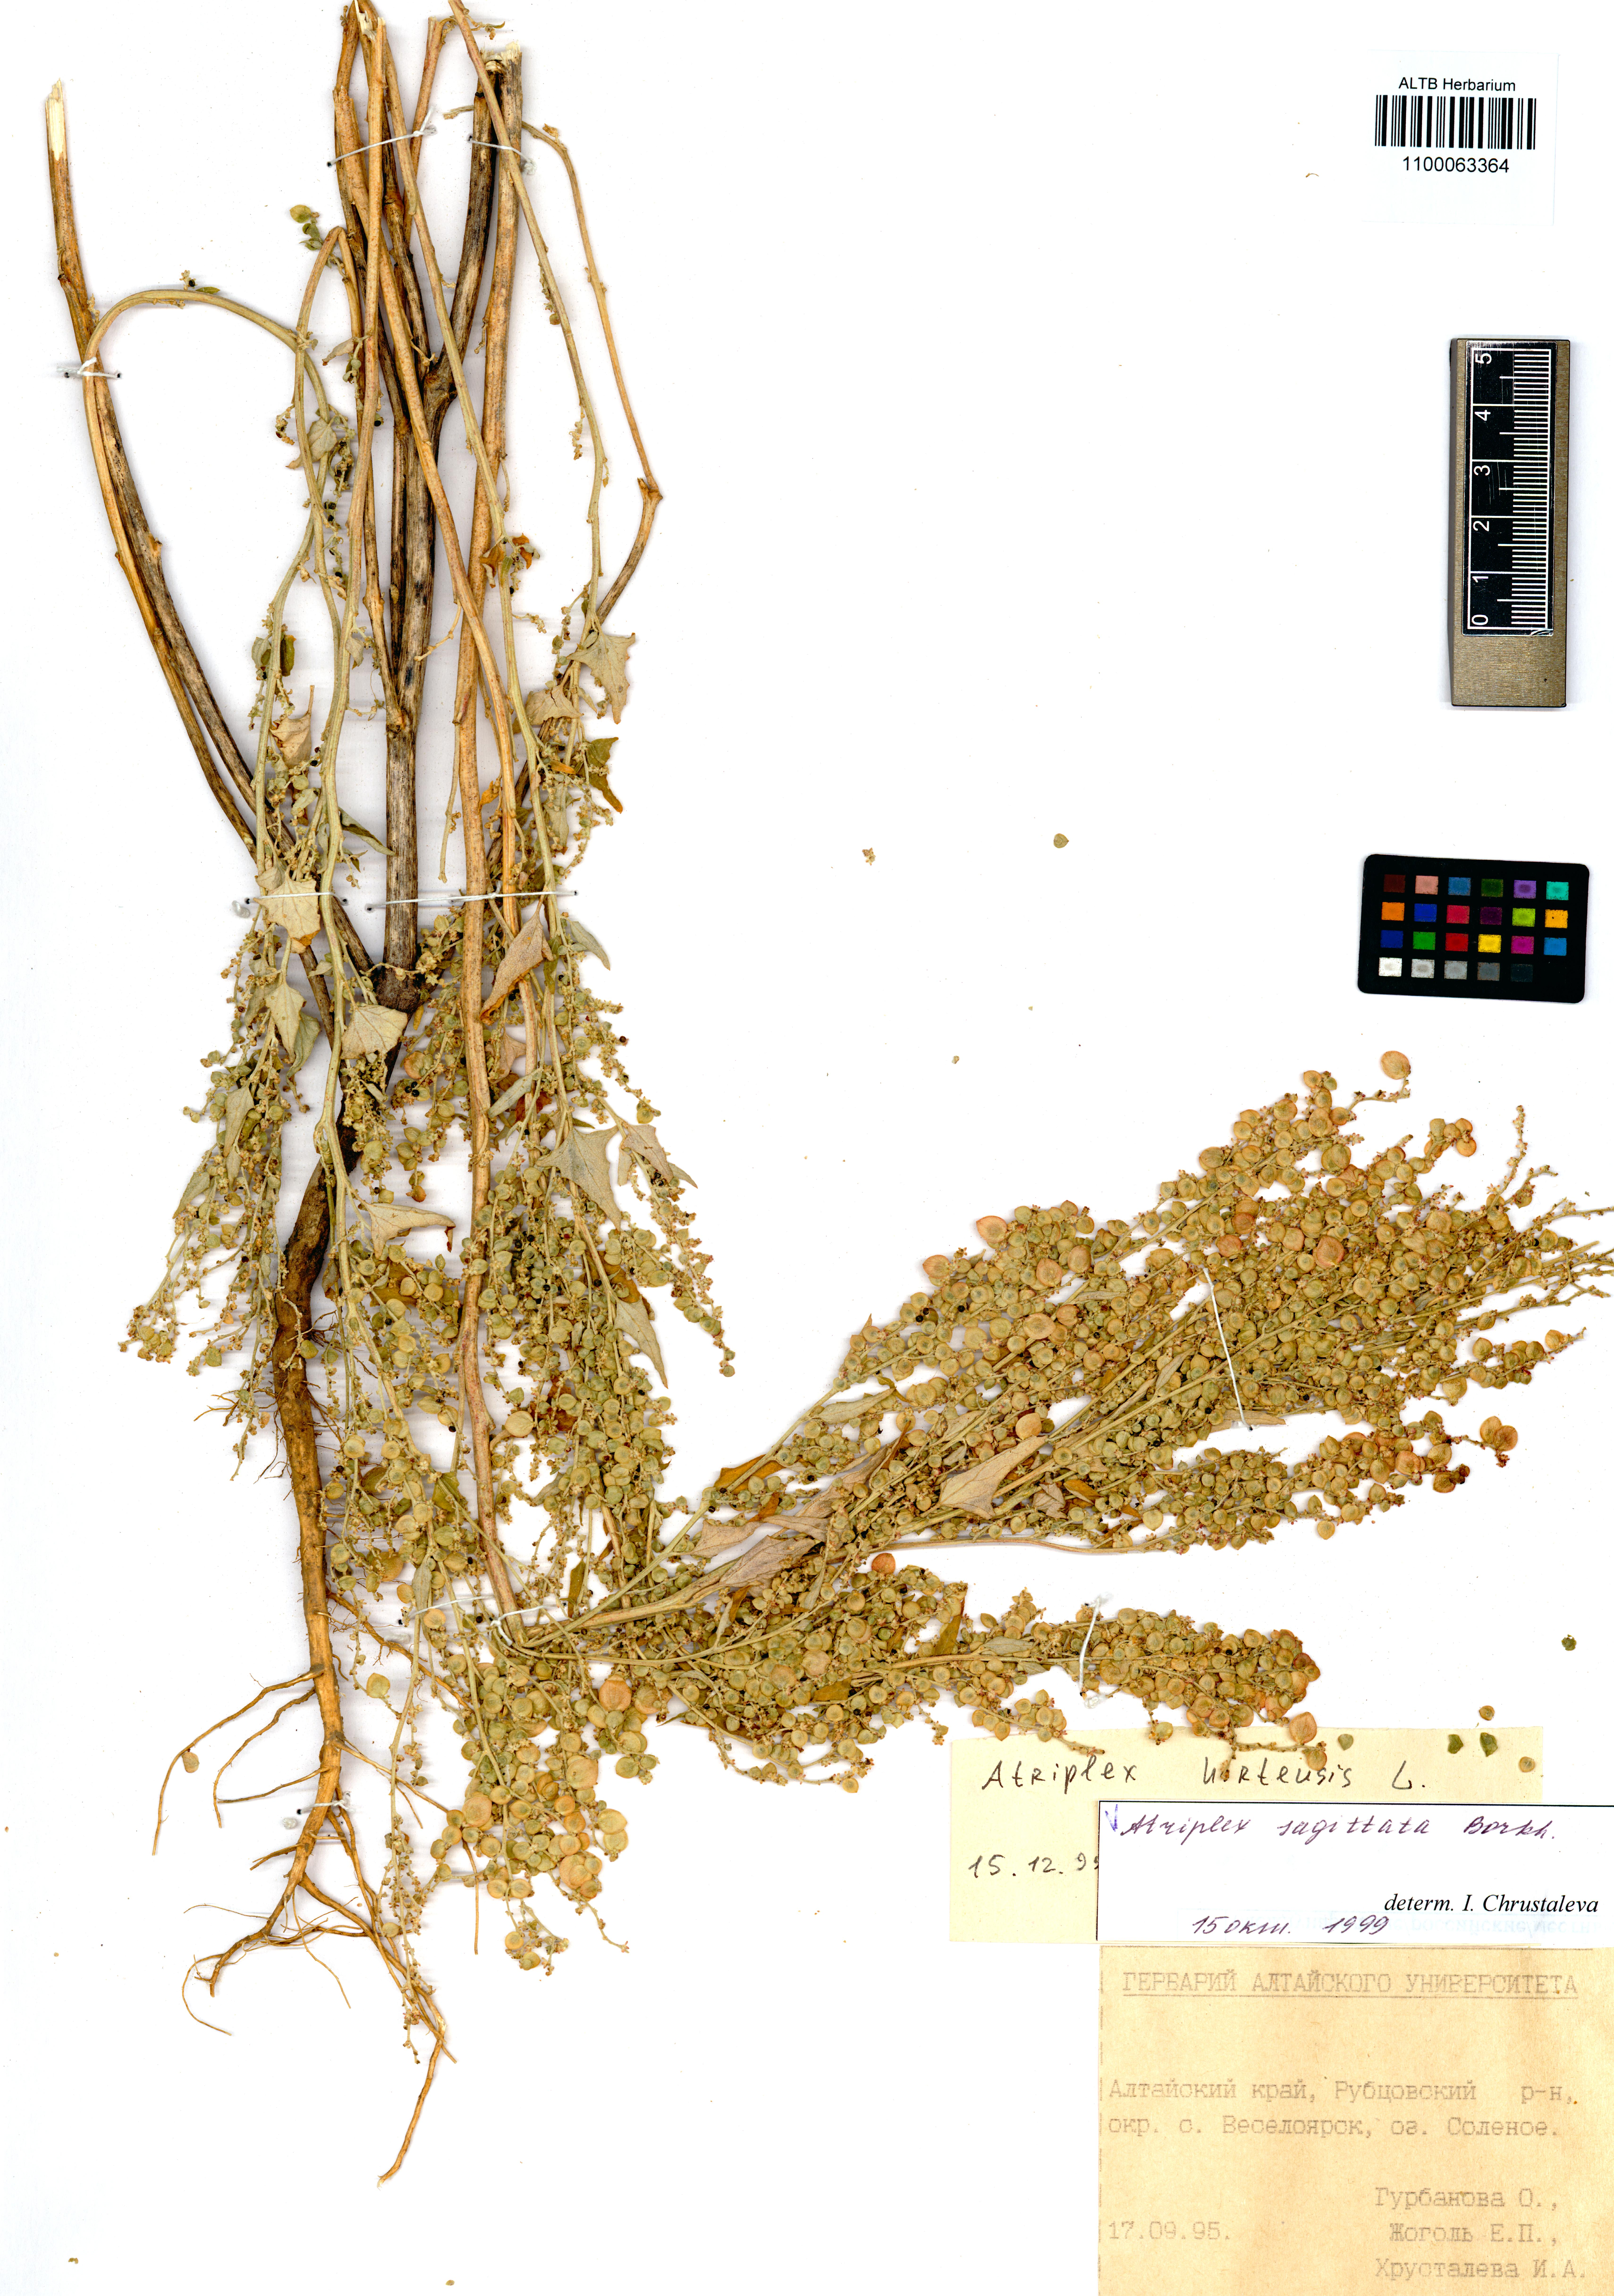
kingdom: Plantae
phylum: Tracheophyta
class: Magnoliopsida
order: Caryophyllales
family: Amaranthaceae
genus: Atriplex
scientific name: Atriplex sagittata
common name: Purple orache
